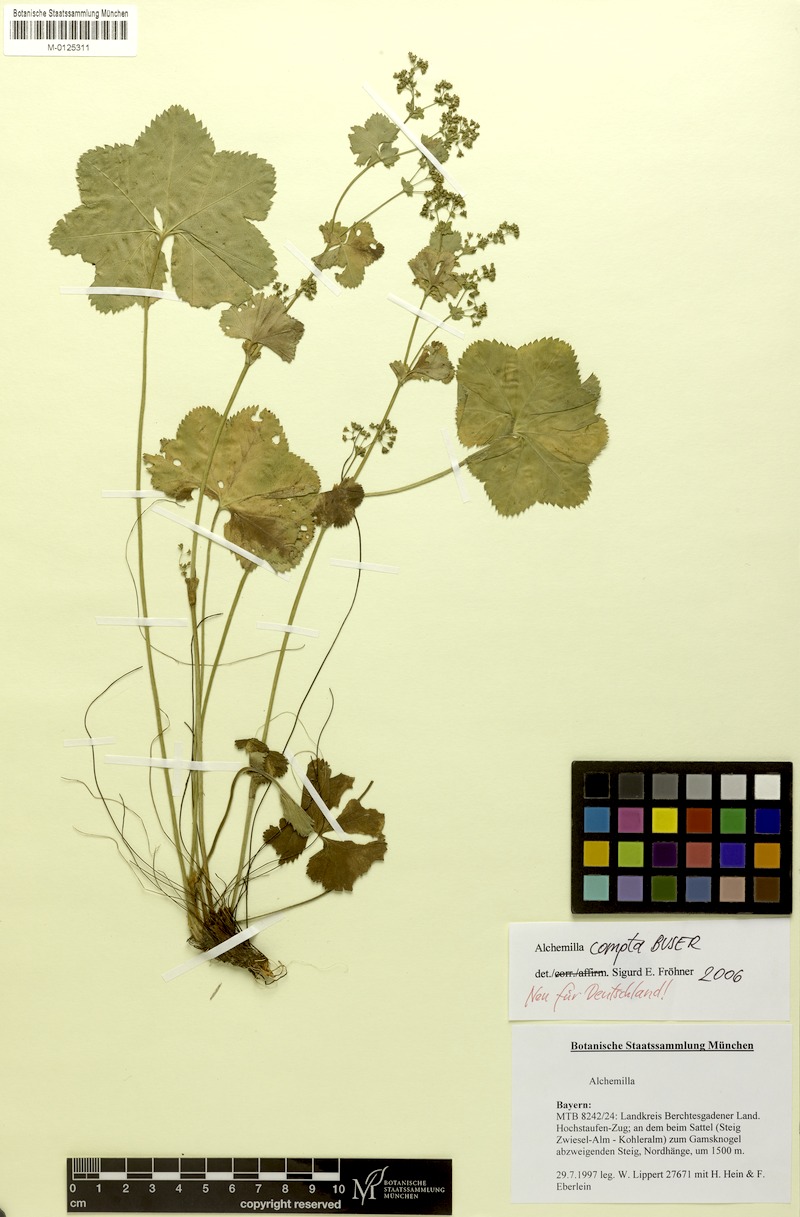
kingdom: Plantae
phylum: Tracheophyta
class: Magnoliopsida
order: Rosales
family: Rosaceae
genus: Alchemilla
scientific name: Alchemilla compta
